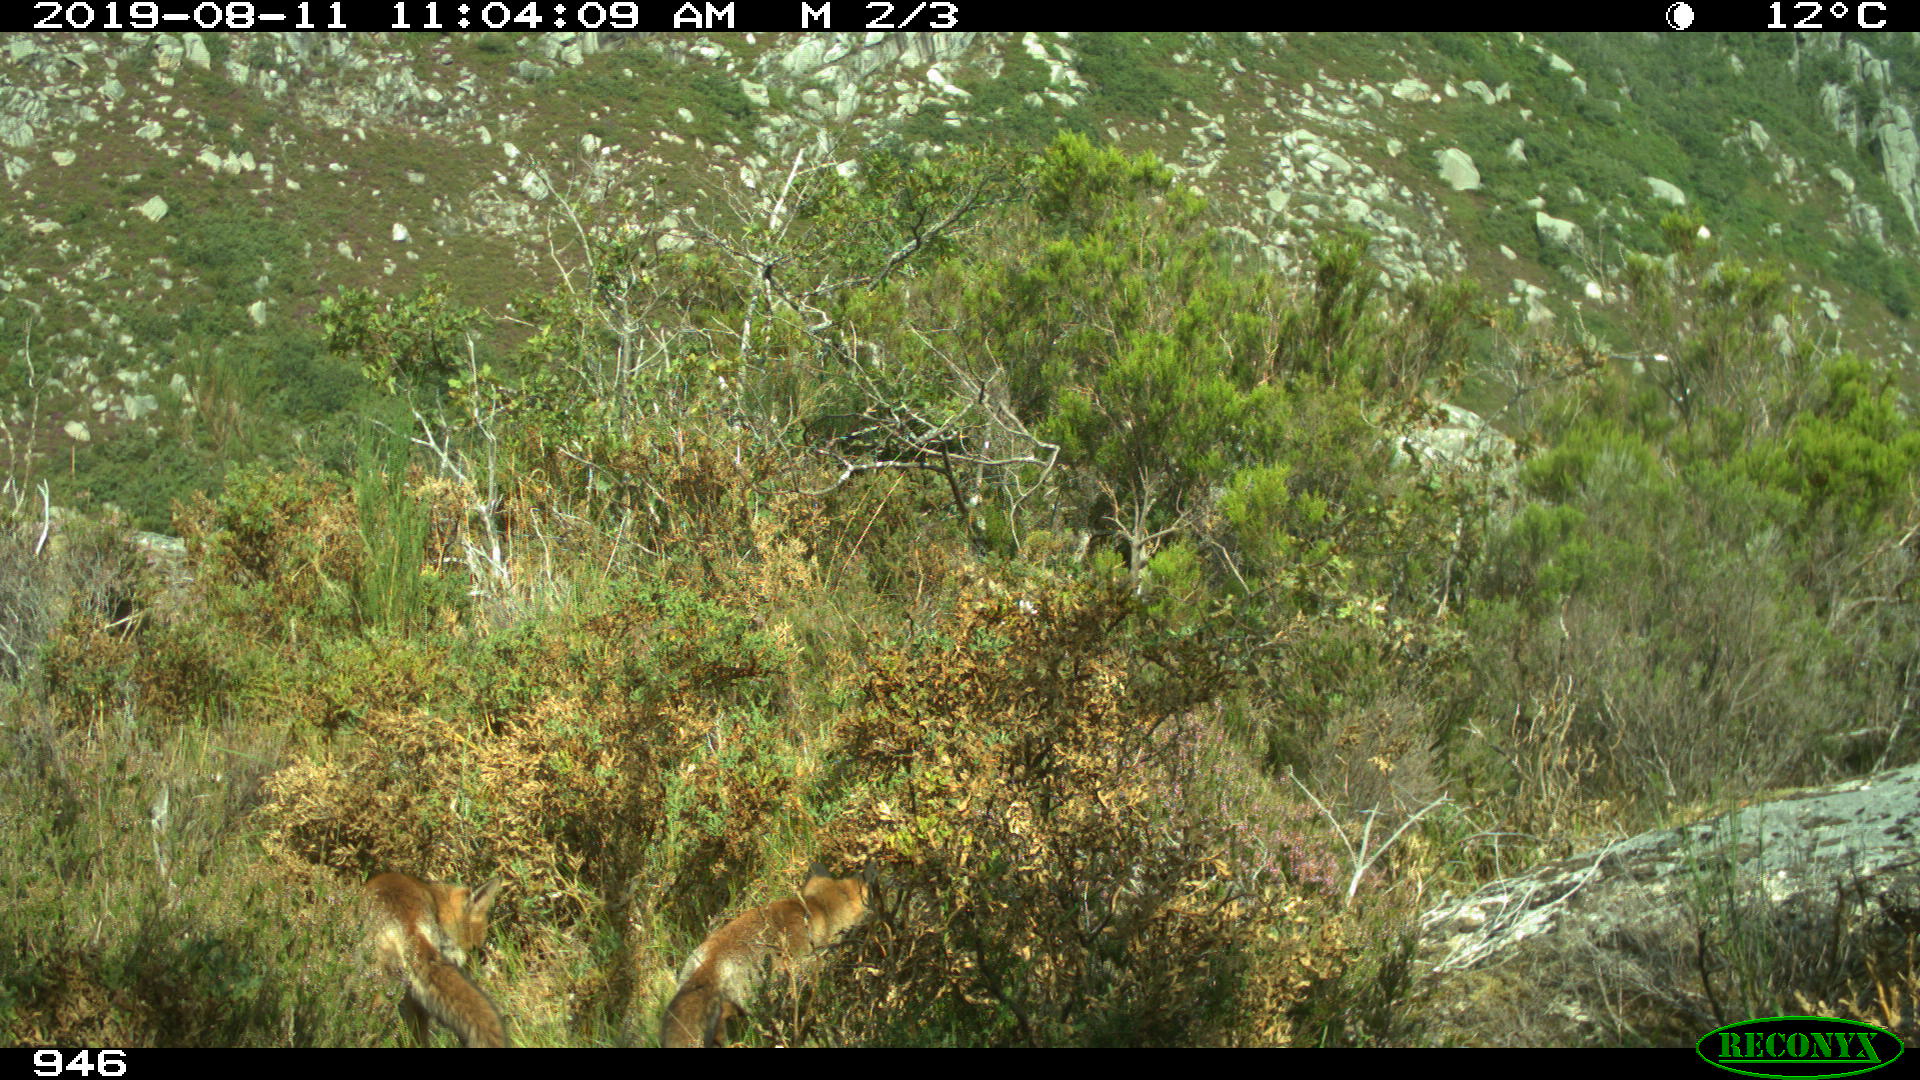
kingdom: Animalia
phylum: Chordata
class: Mammalia
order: Carnivora
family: Canidae
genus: Vulpes
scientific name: Vulpes vulpes
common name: Red fox
